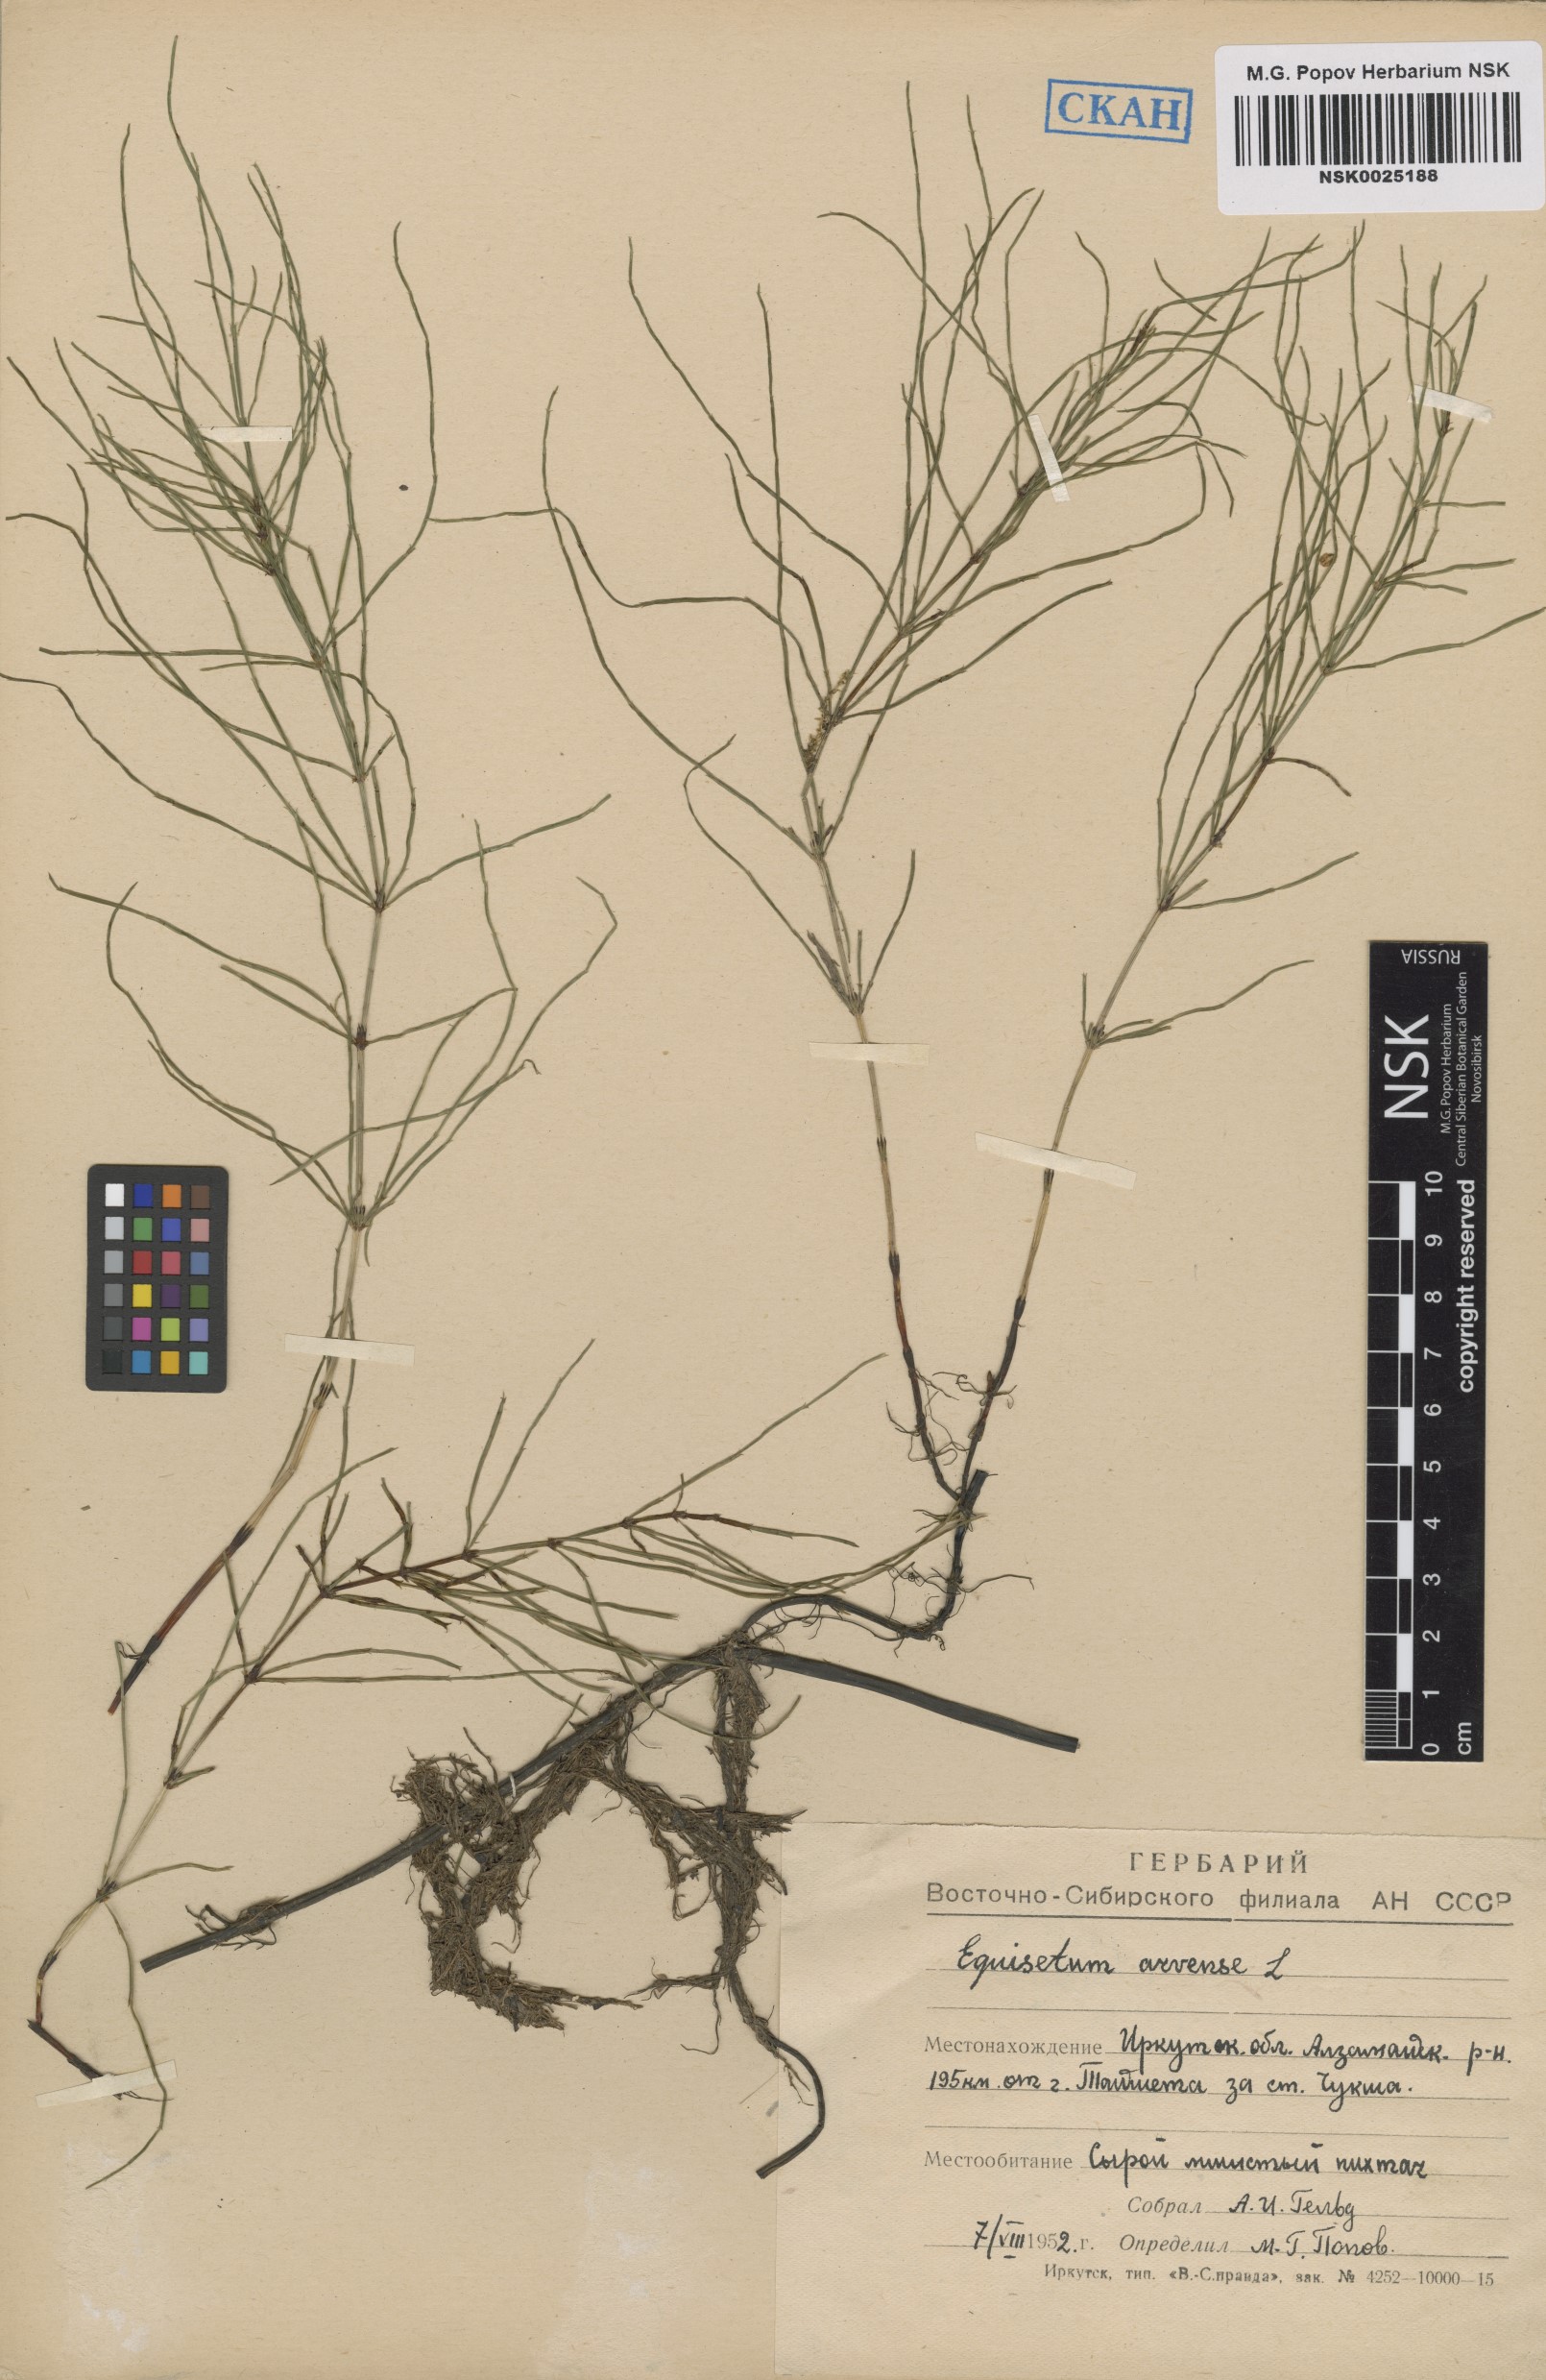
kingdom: Plantae
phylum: Tracheophyta
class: Polypodiopsida
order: Equisetales
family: Equisetaceae
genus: Equisetum
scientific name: Equisetum arvense
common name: Field horsetail
